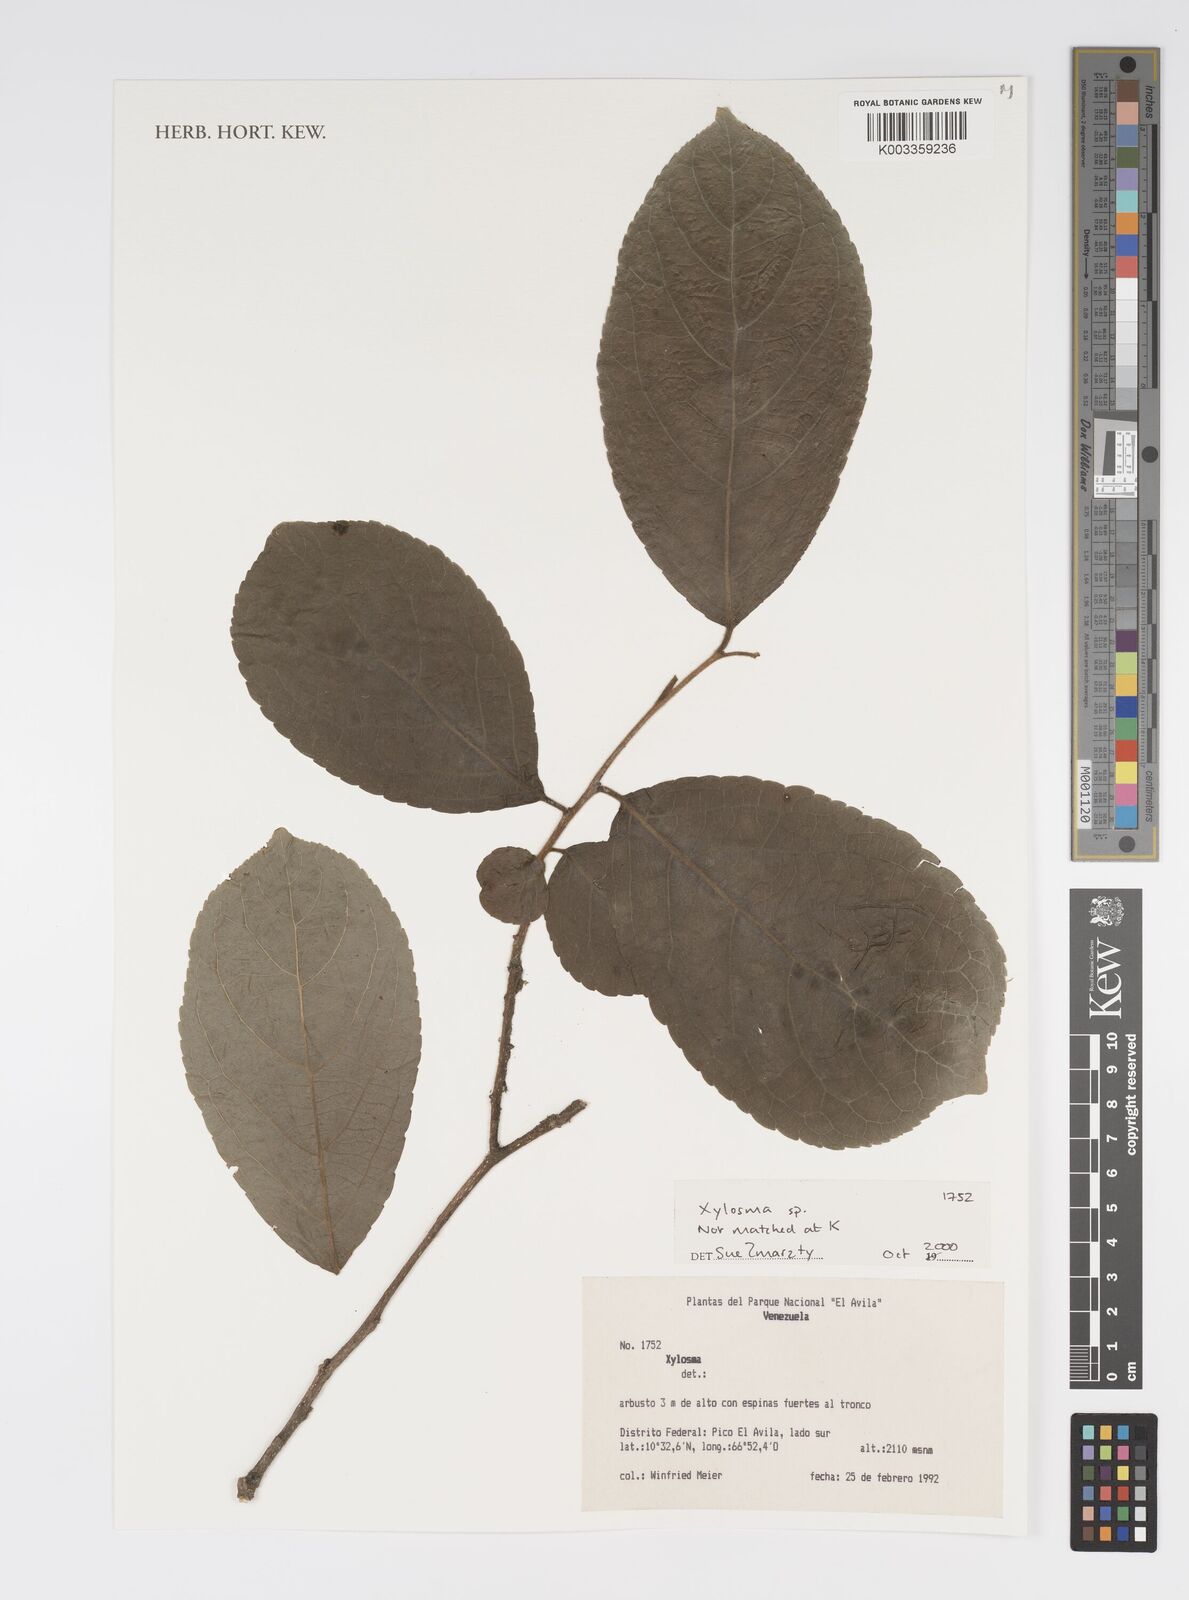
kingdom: Plantae
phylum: Tracheophyta
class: Magnoliopsida
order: Malpighiales
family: Salicaceae
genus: Xylosma
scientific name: Xylosma
